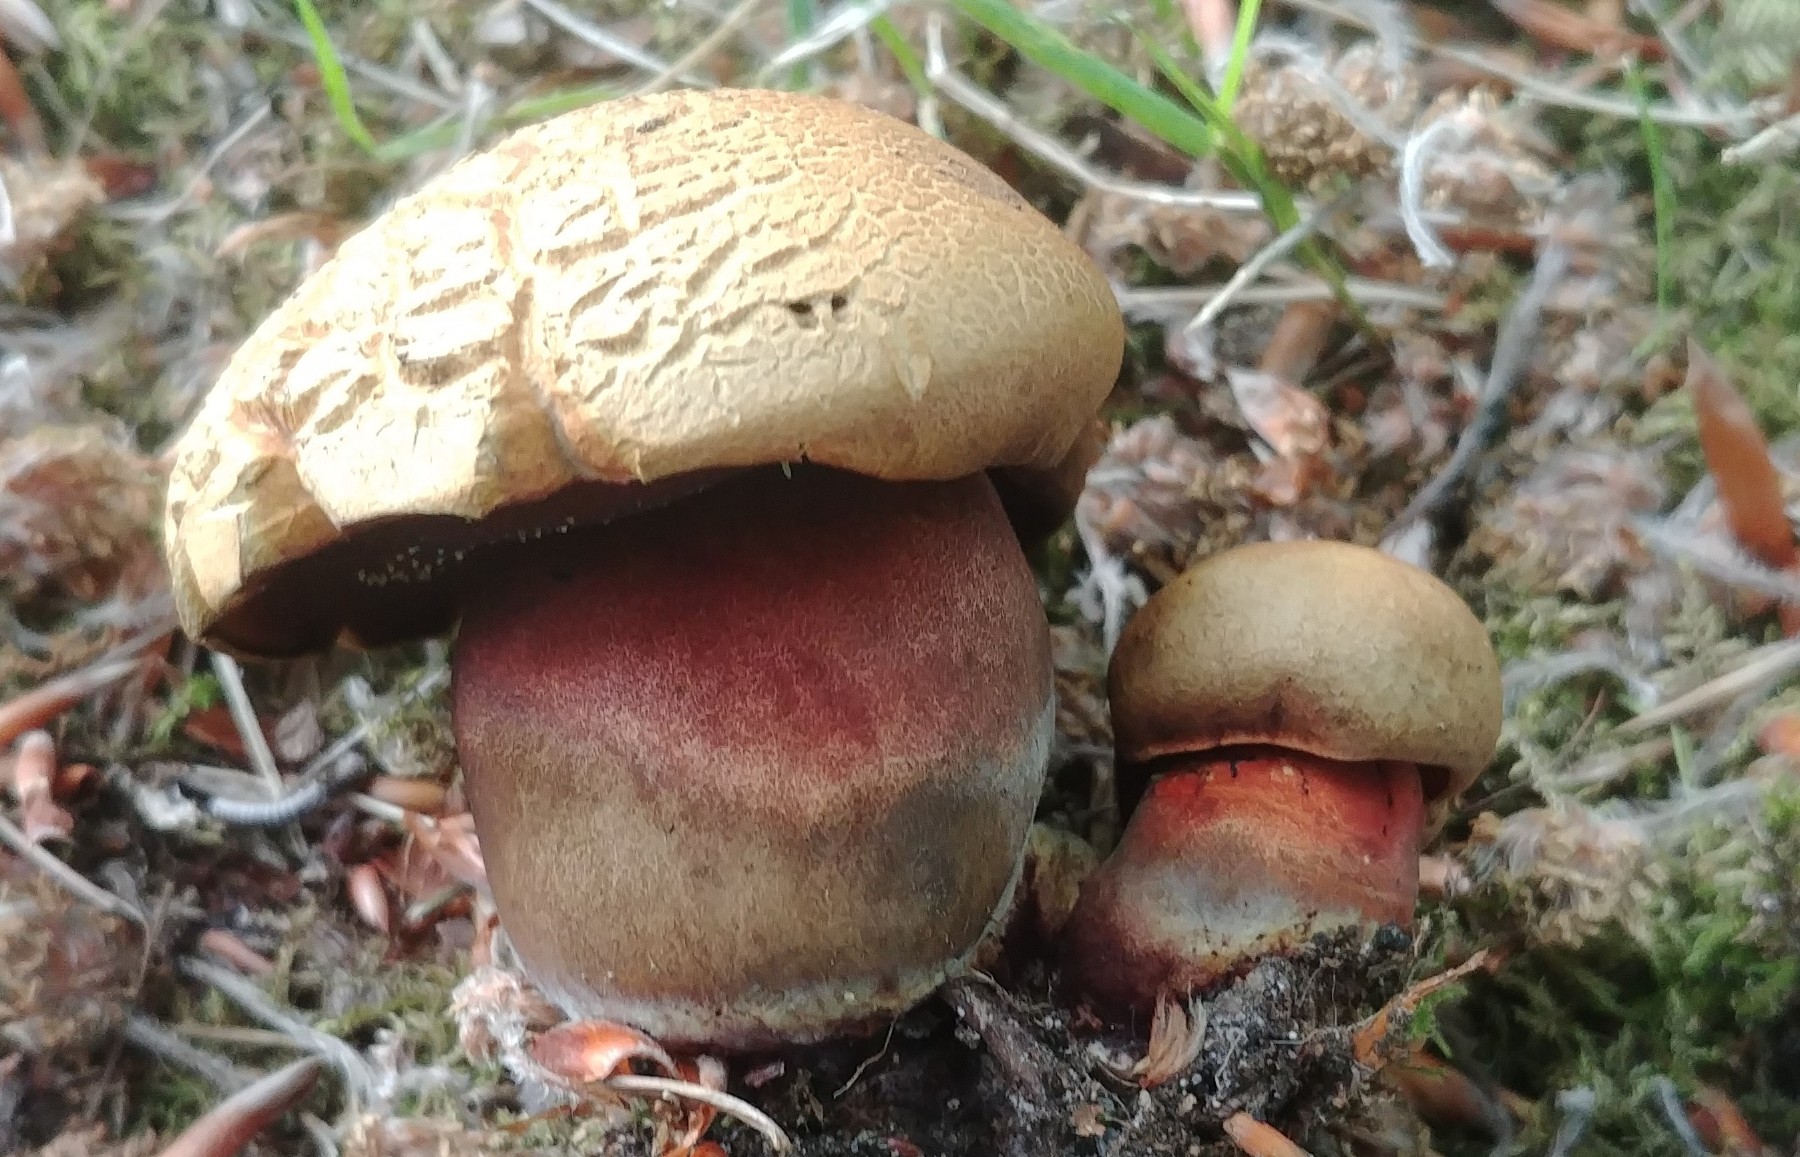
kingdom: Fungi
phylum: Basidiomycota
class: Agaricomycetes
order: Boletales
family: Boletaceae
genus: Neoboletus
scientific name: Neoboletus erythropus
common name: punktstokket indigorørhat
